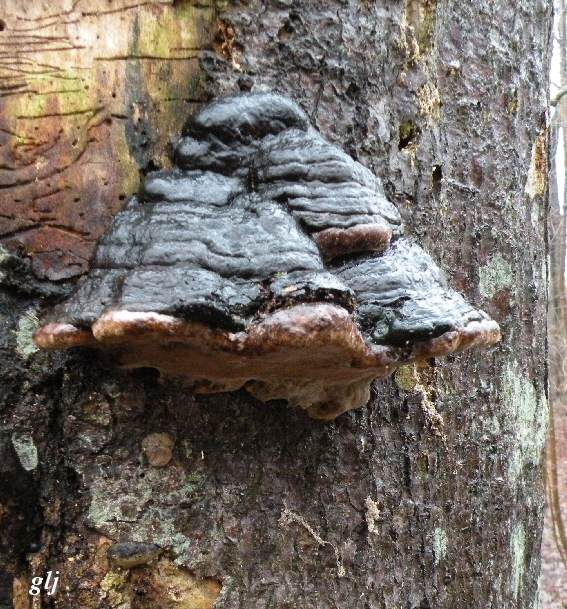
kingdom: Fungi
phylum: Basidiomycota
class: Agaricomycetes
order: Polyporales
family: Polyporaceae
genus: Fomes
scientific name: Fomes fomentarius
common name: tøndersvamp
